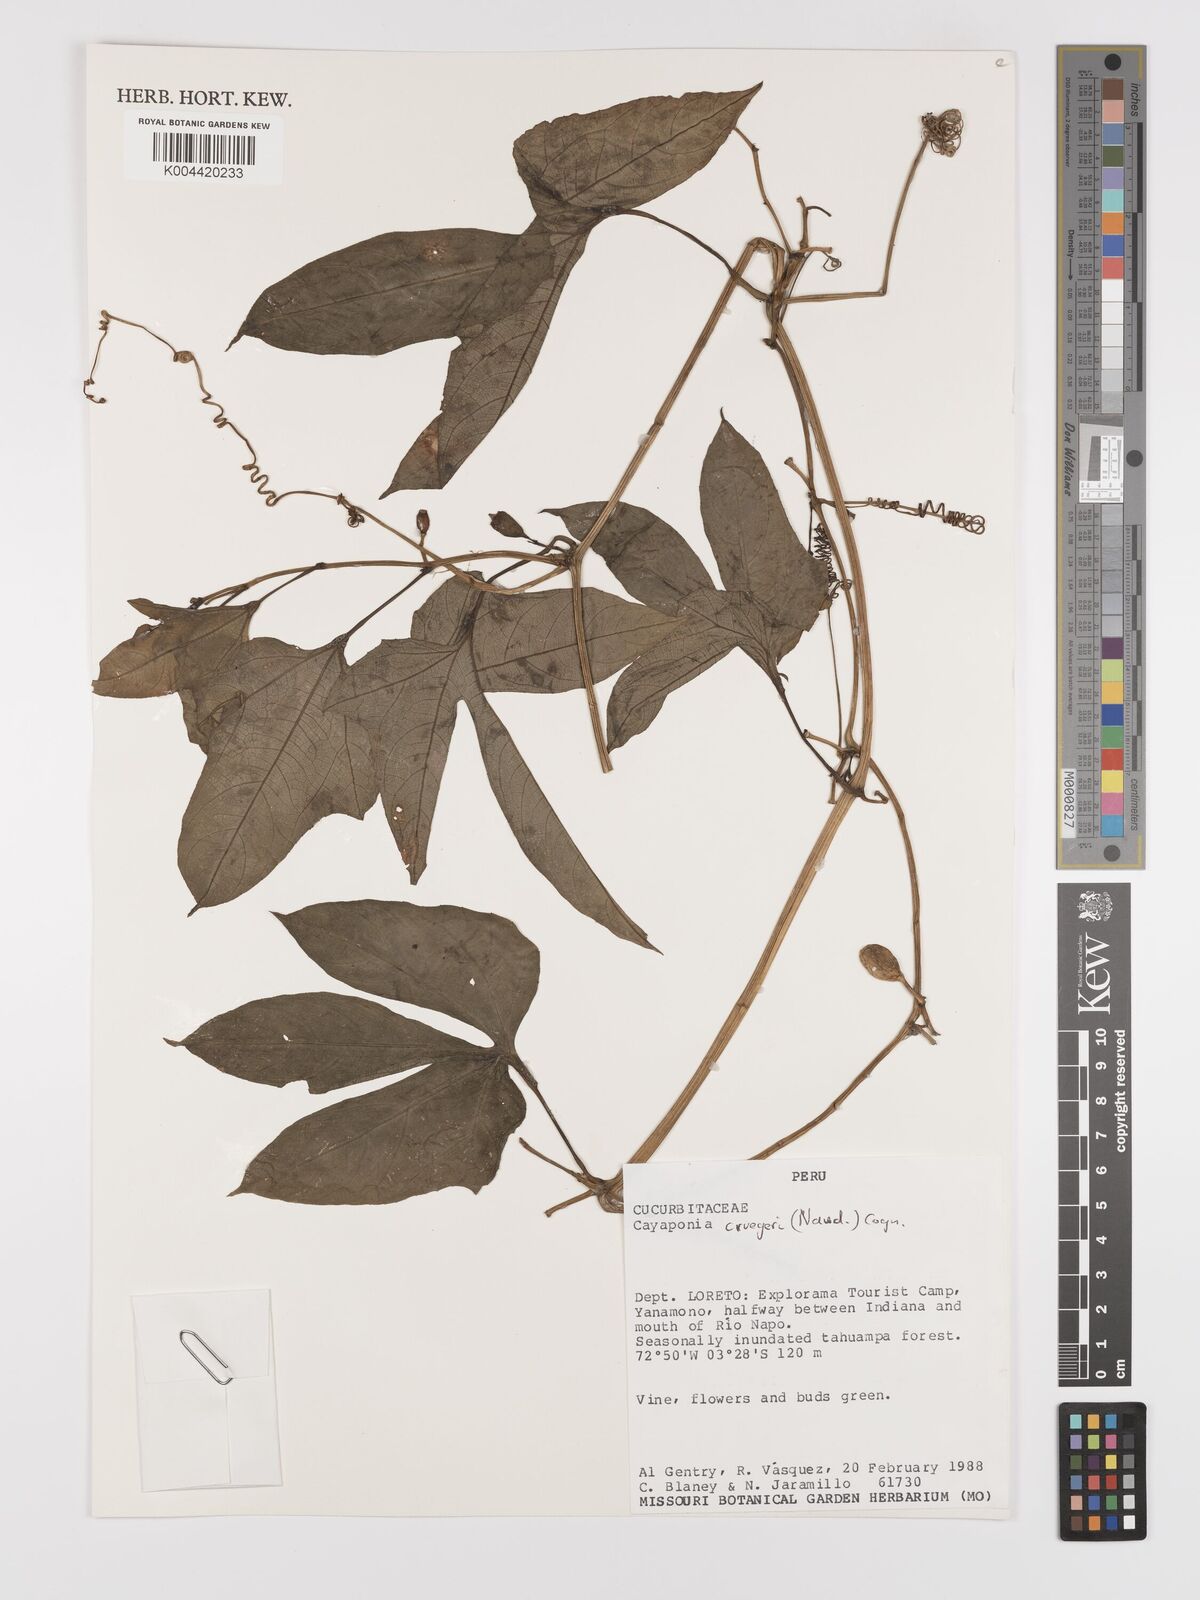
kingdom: Plantae
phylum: Tracheophyta
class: Magnoliopsida
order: Cucurbitales
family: Cucurbitaceae
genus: Cayaponia
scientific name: Cayaponia cruegeri
